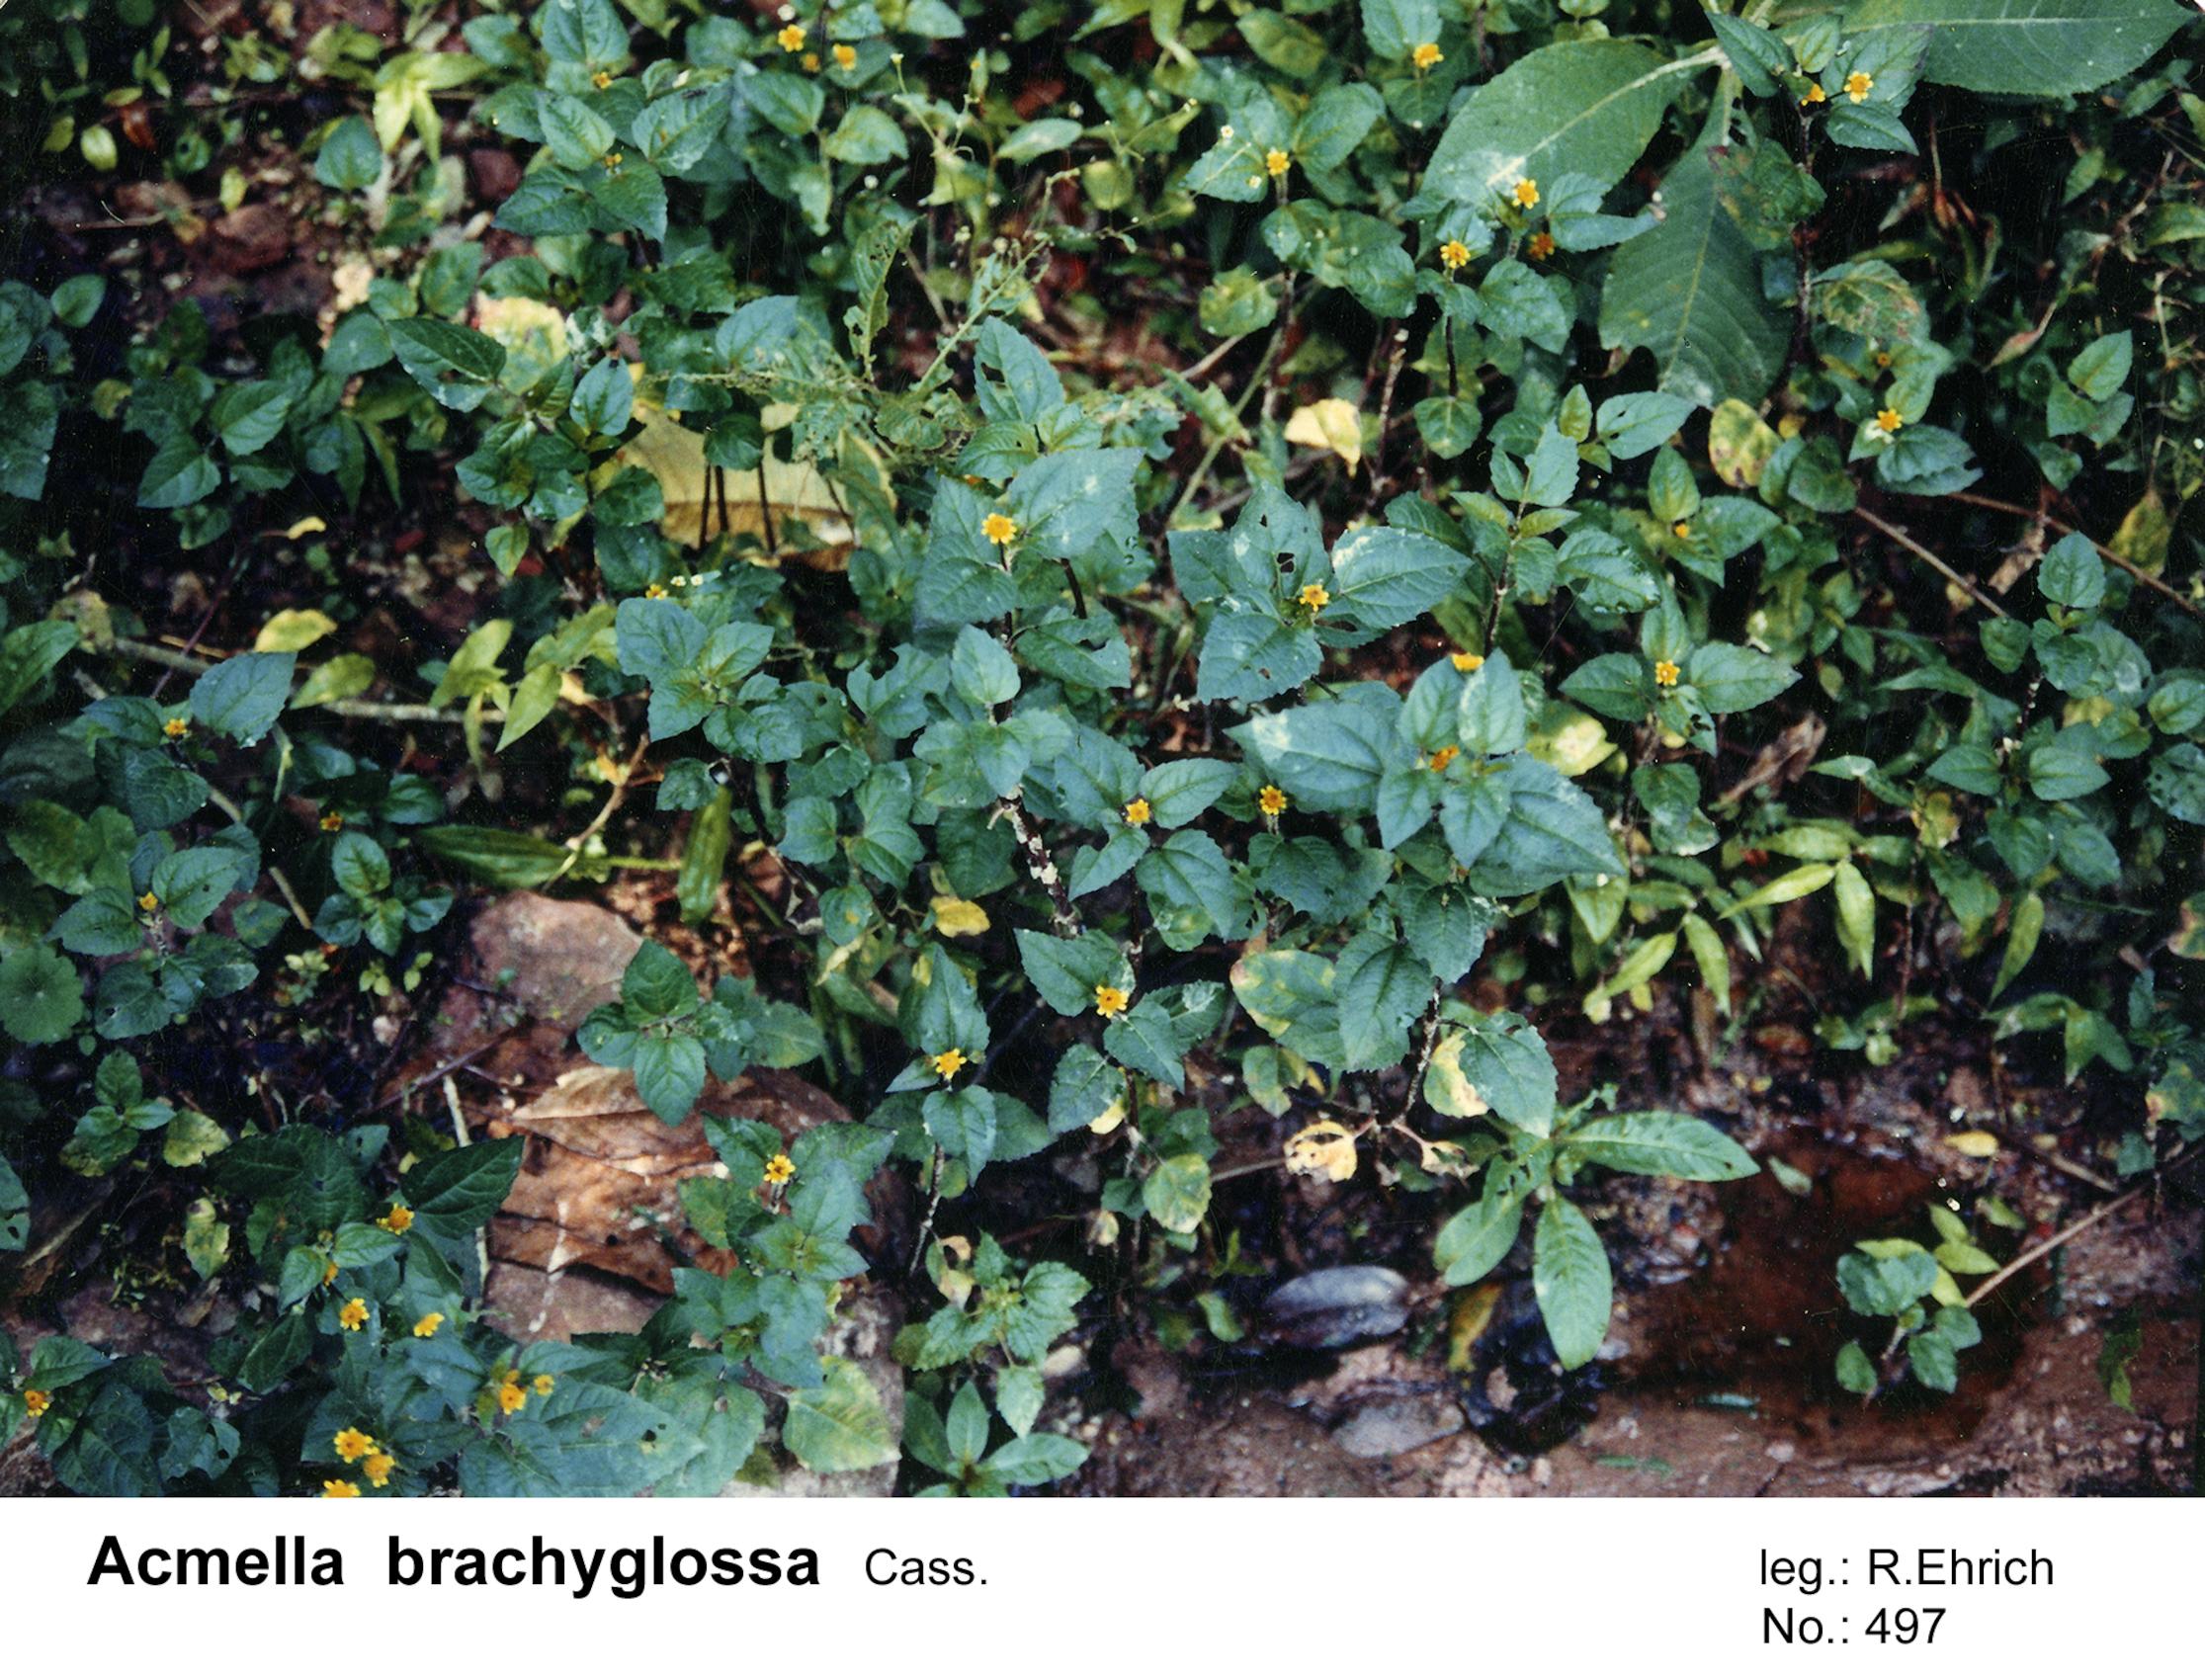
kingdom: Plantae
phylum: Tracheophyta
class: Magnoliopsida
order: Asterales
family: Asteraceae
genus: Acmella
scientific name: Acmella brachyglossa
